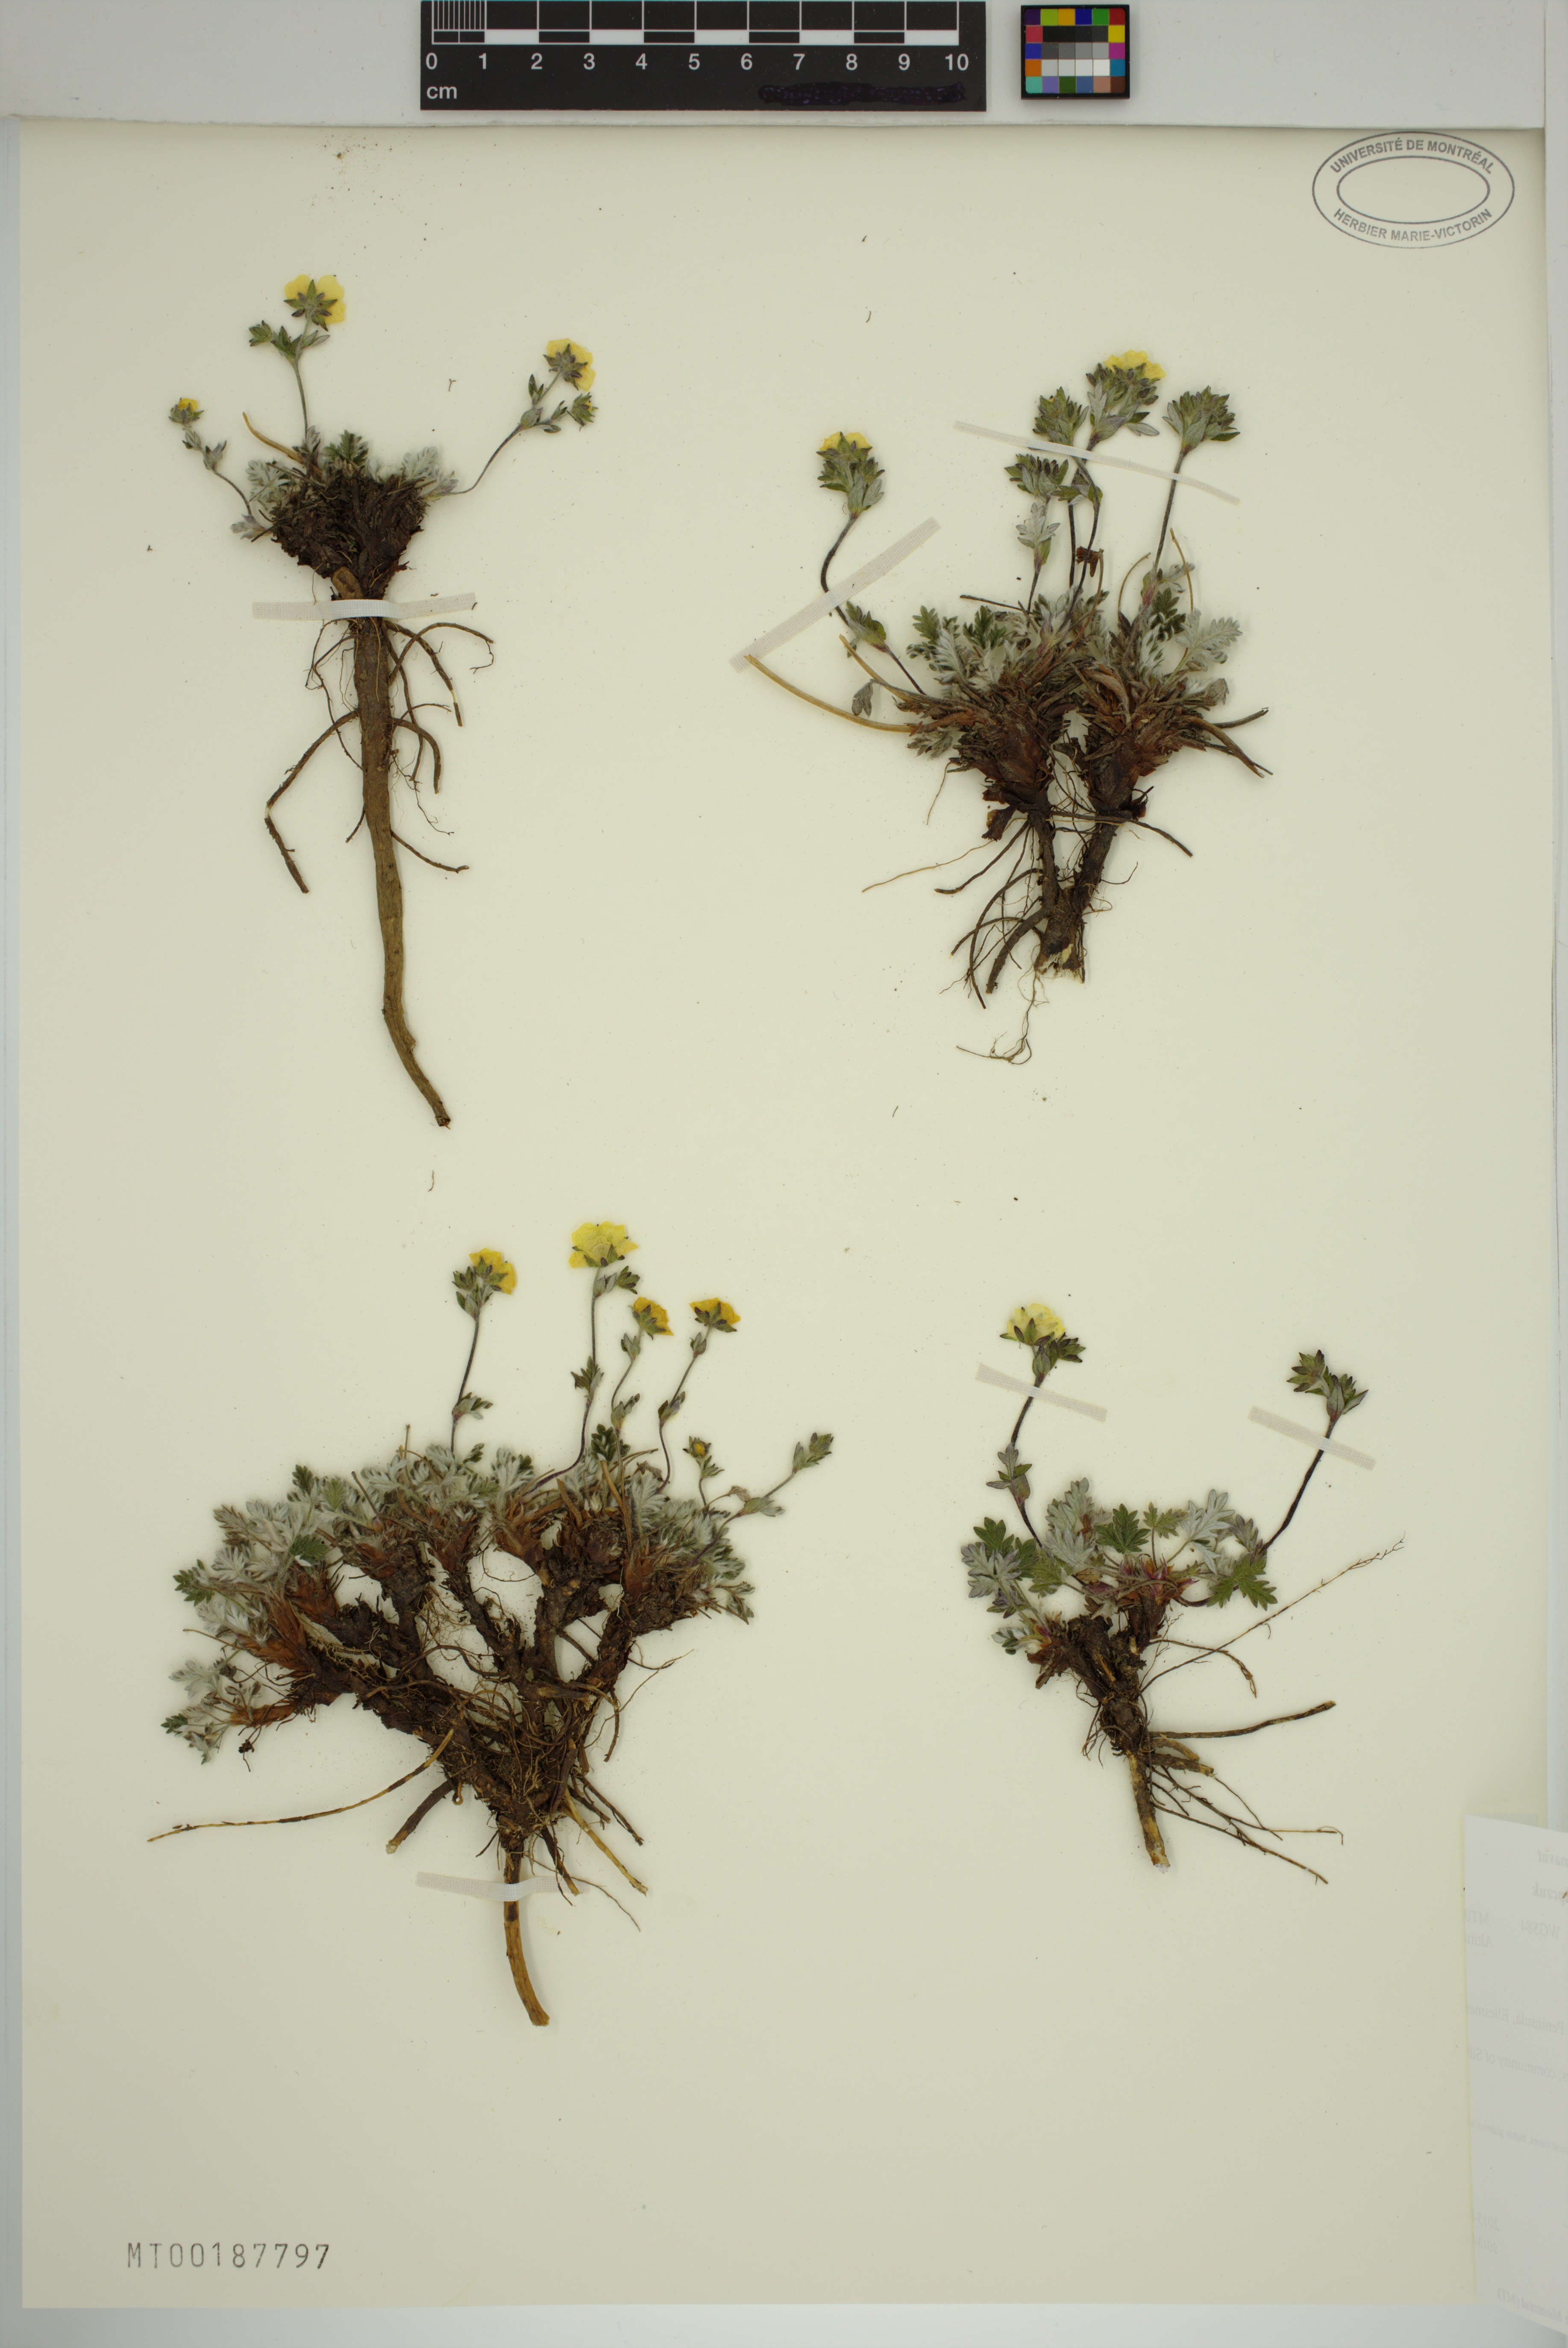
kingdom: Plantae
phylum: Tracheophyta
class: Magnoliopsida
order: Rosales
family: Rosaceae
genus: Potentilla
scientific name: Potentilla arenosa
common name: Bluff cinquefoil
